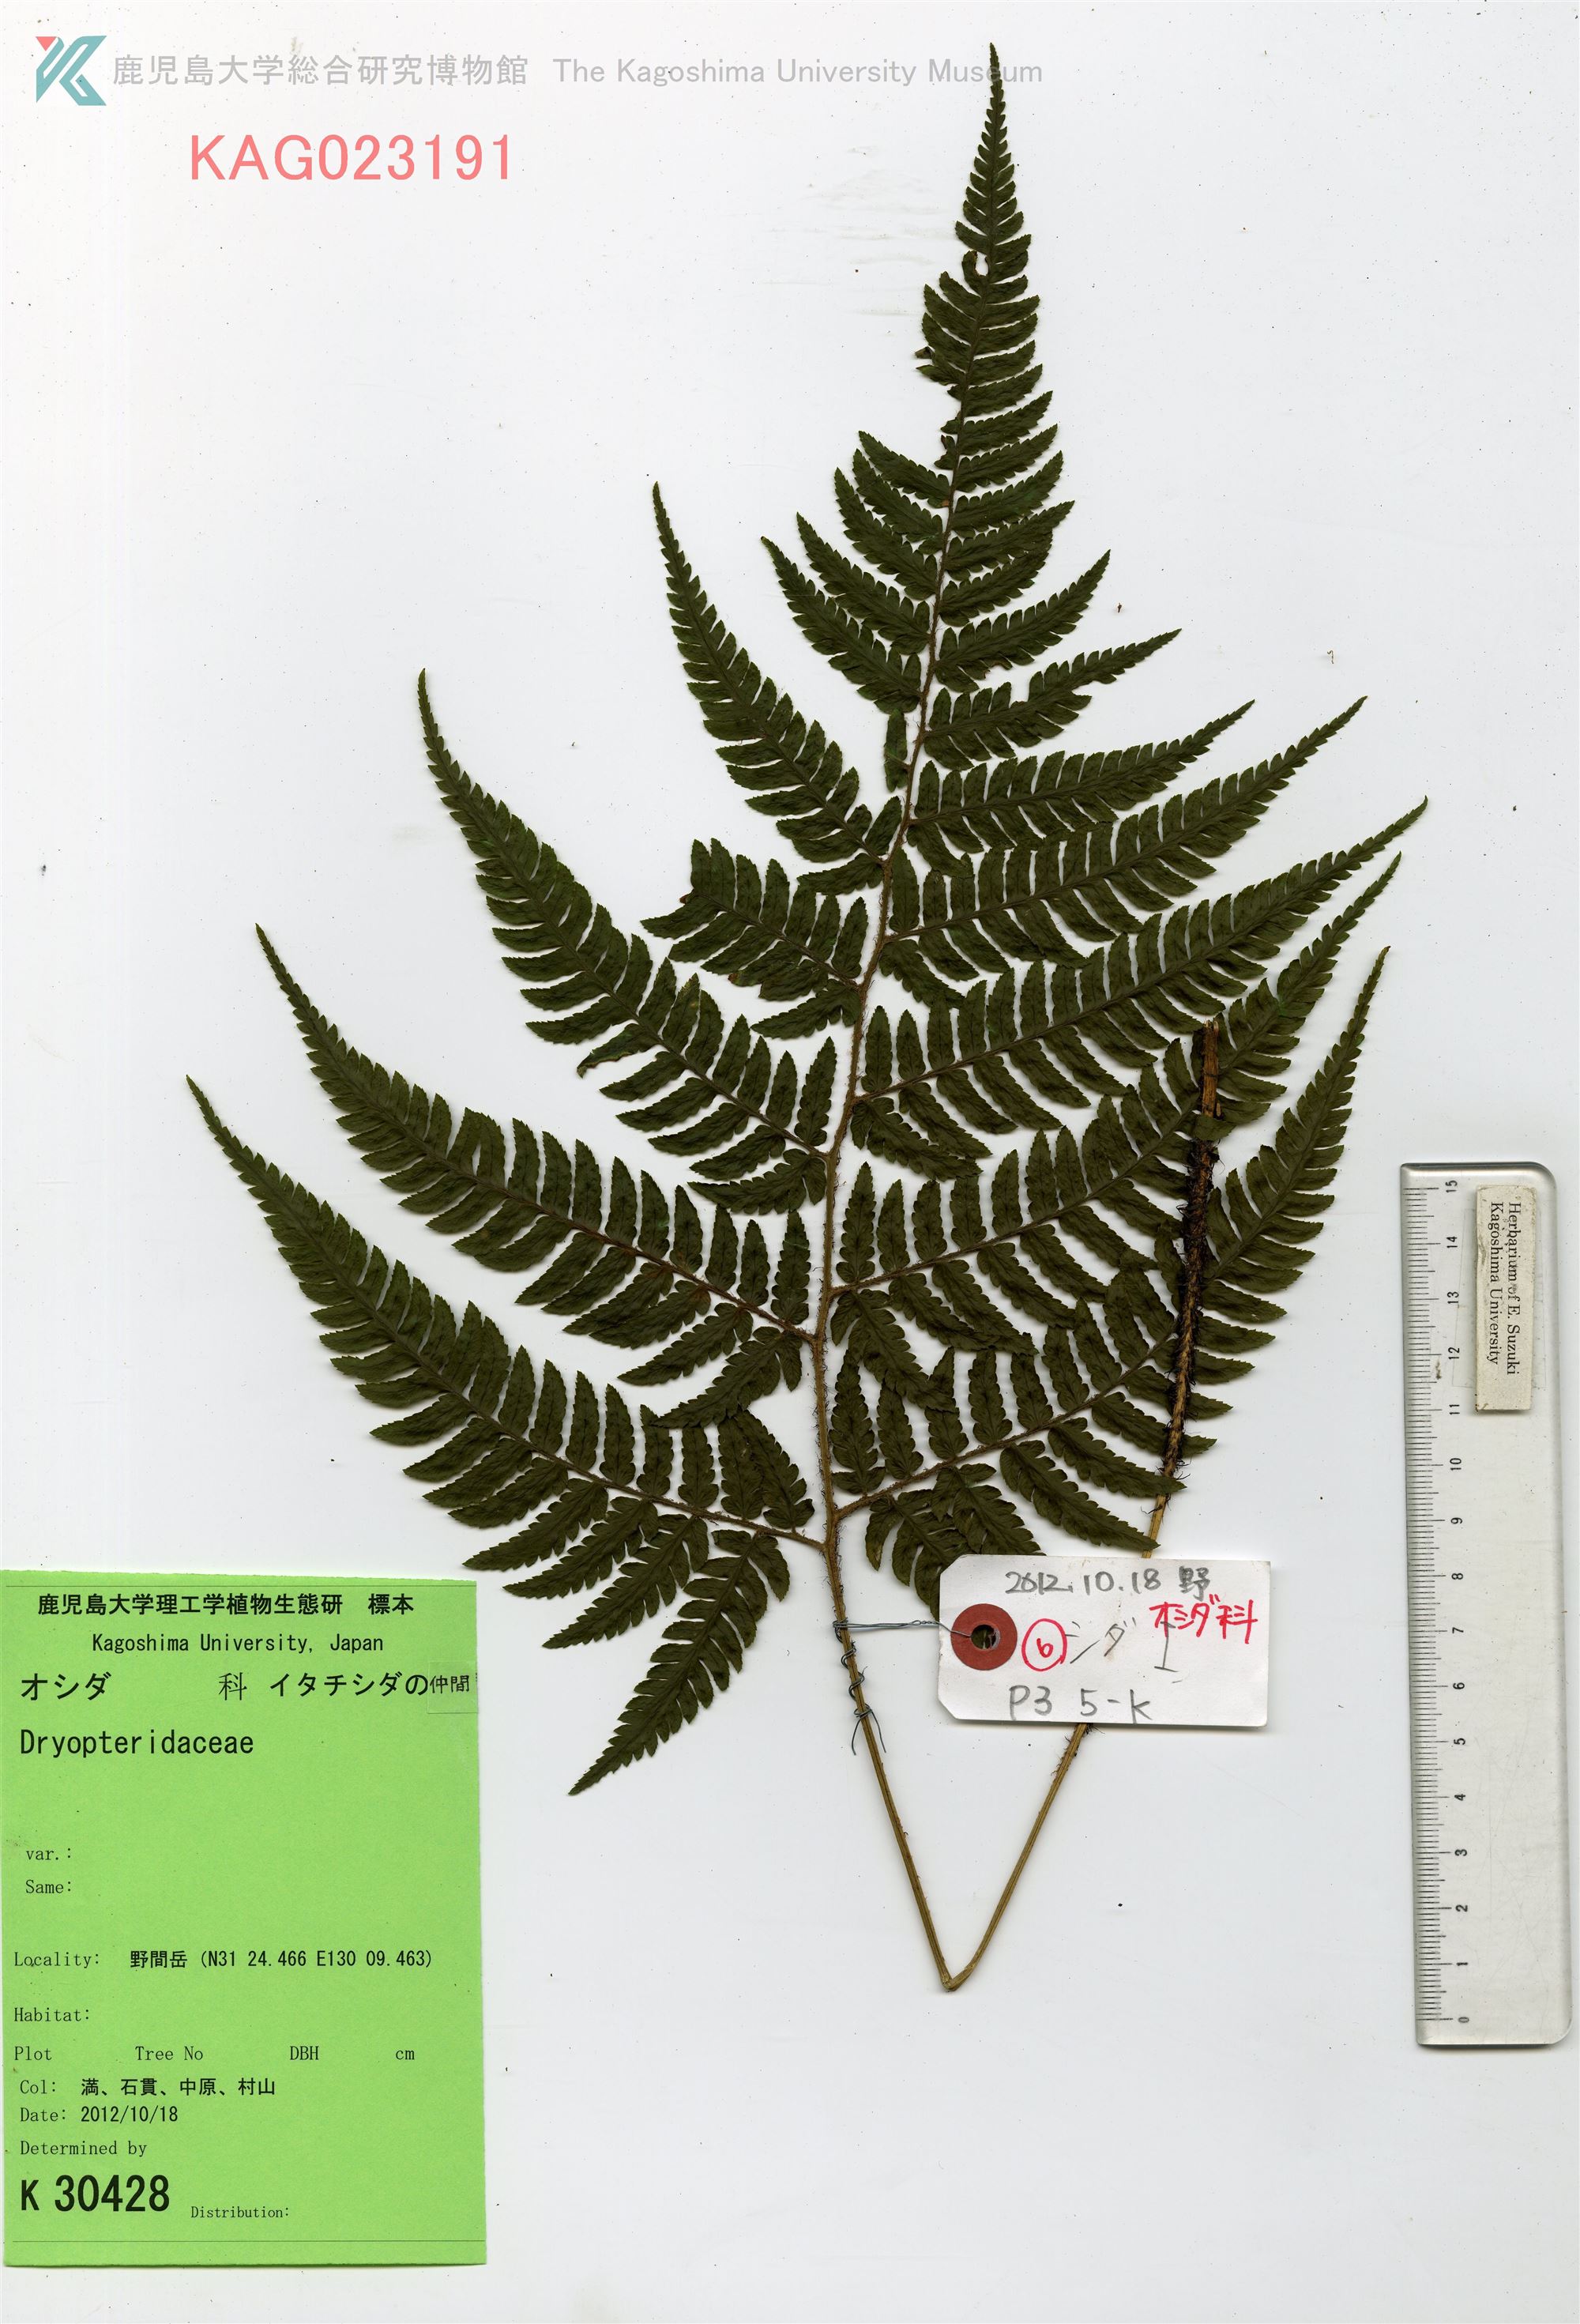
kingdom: Plantae
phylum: Tracheophyta
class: Polypodiopsida
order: Polypodiales
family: Dryopteridaceae
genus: Dryopteris
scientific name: Dryopteris
